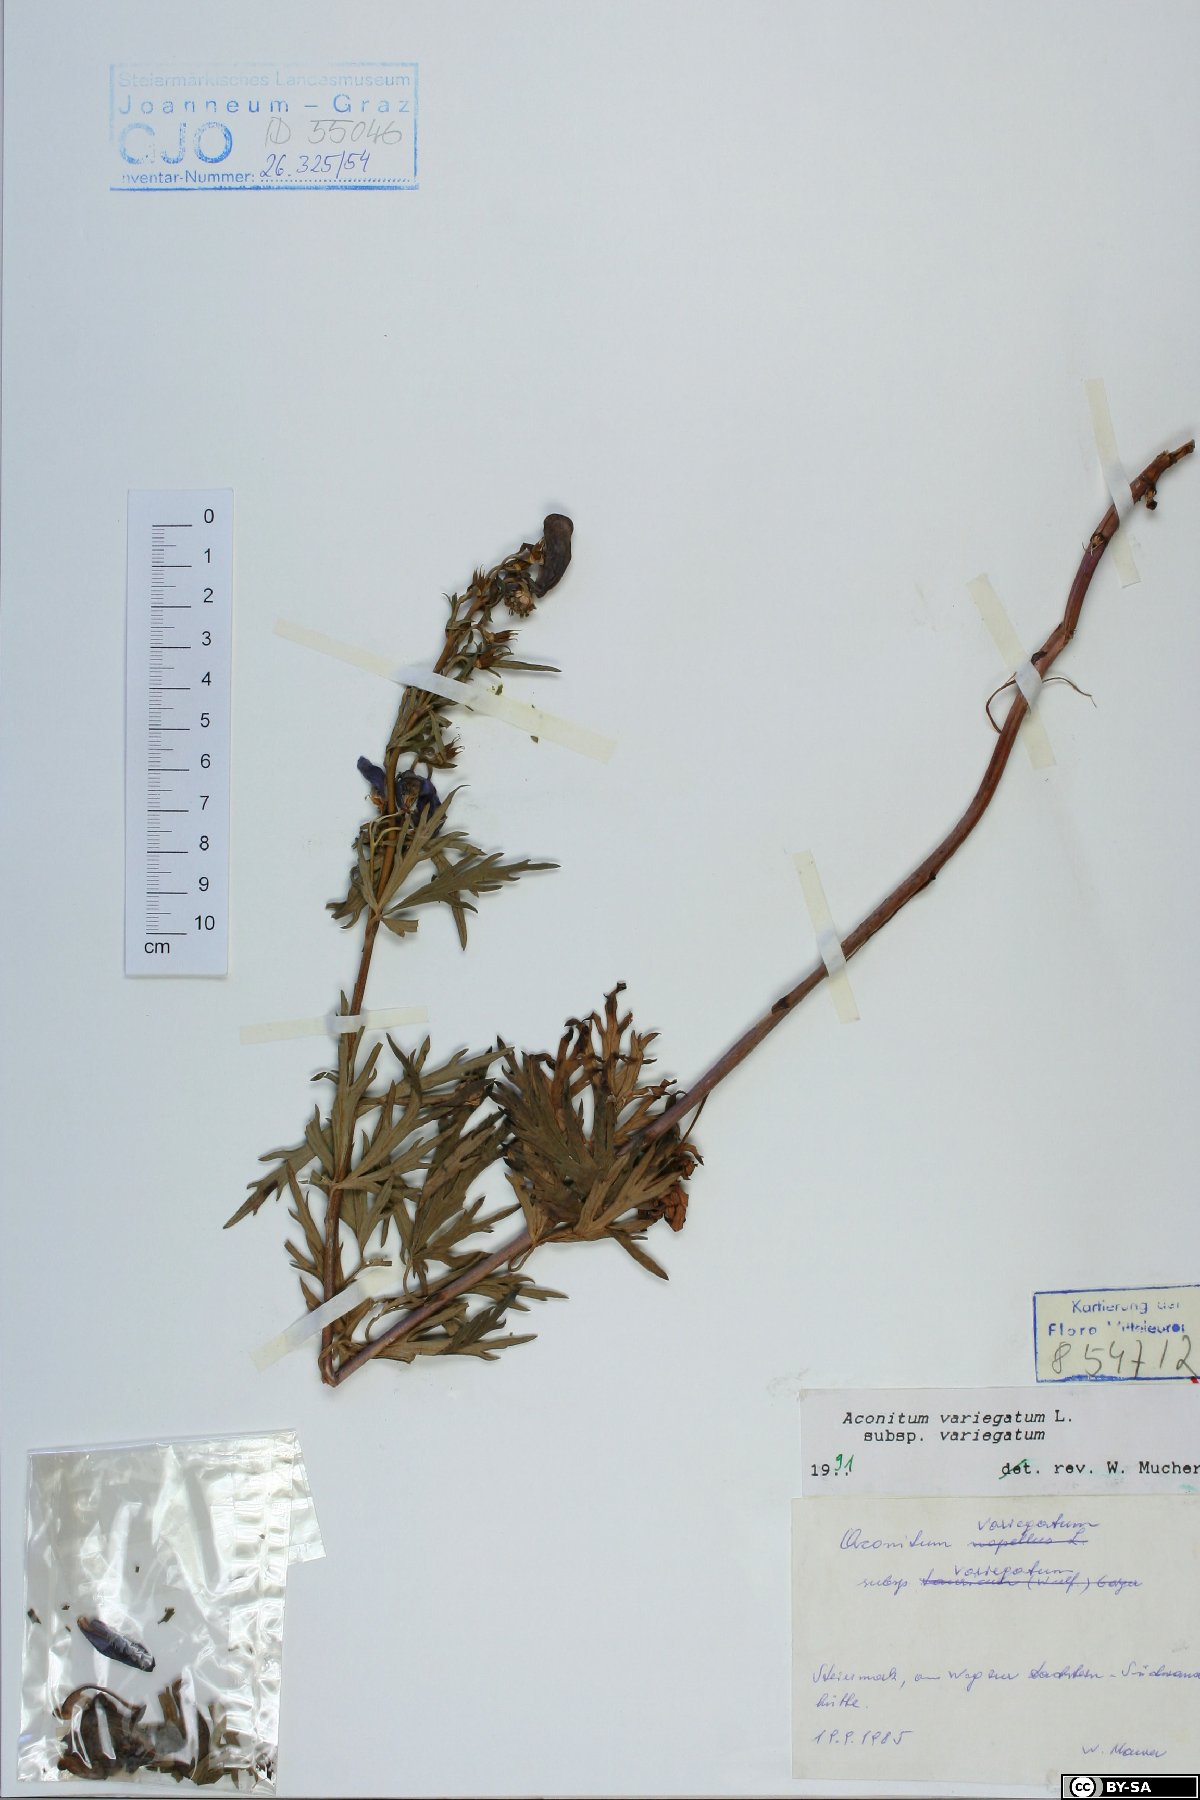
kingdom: Plantae
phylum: Tracheophyta
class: Magnoliopsida
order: Ranunculales
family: Ranunculaceae
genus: Aconitum
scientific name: Aconitum variegatum
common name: Manchurian monkshood
